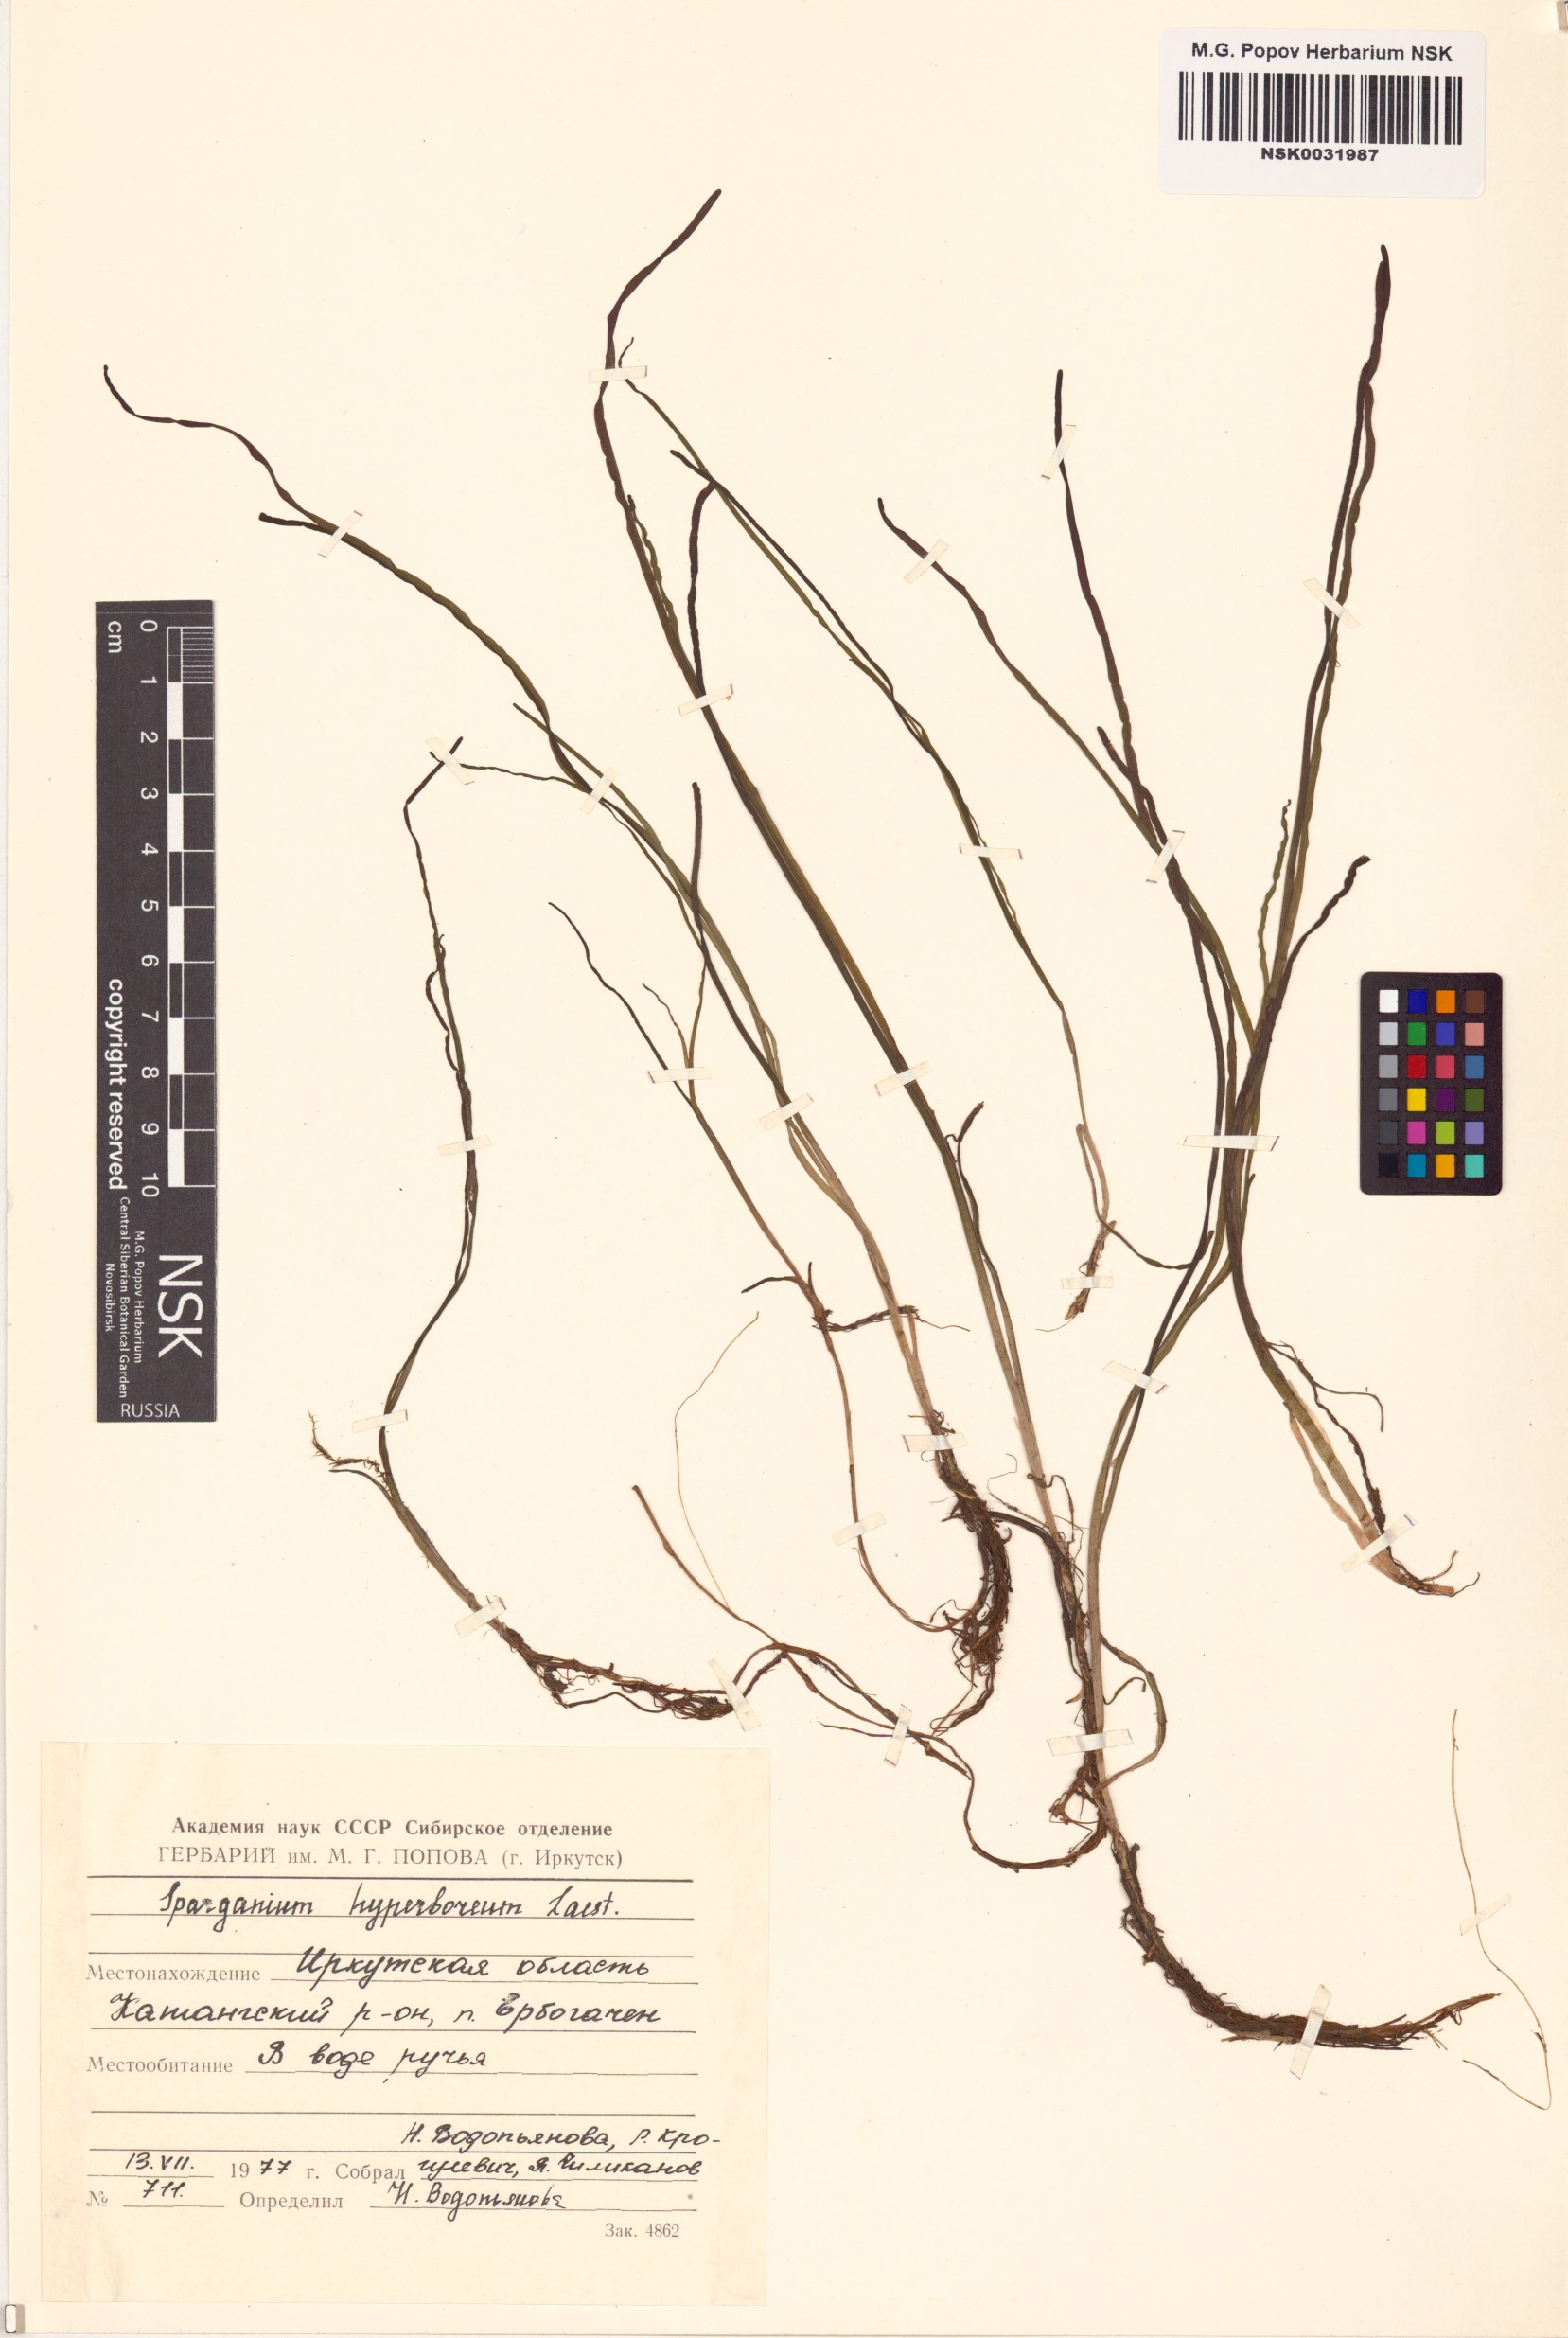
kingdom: Plantae
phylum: Tracheophyta
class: Liliopsida
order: Poales
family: Typhaceae
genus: Sparganium
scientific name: Sparganium hyperboreum
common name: Arctic burreed
